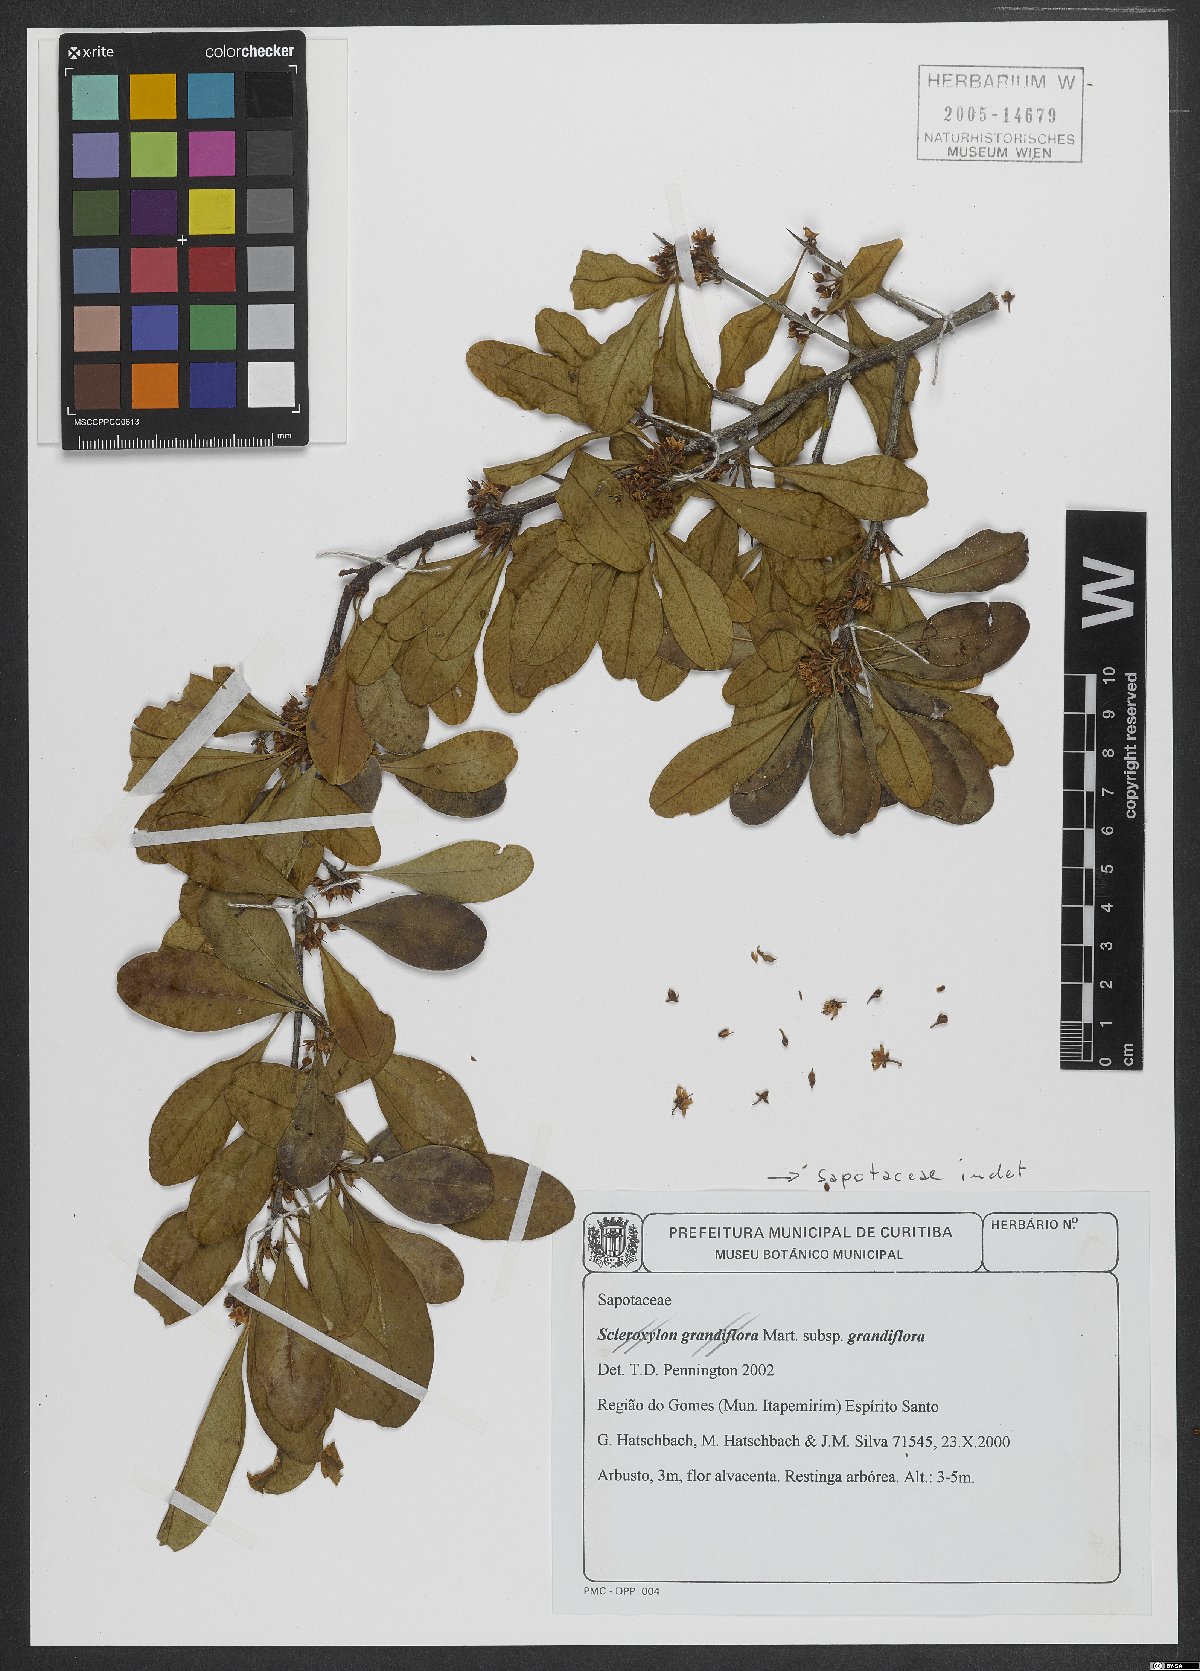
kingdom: Plantae
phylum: Tracheophyta
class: Magnoliopsida
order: Ericales
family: Sapotaceae
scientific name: Sapotaceae
